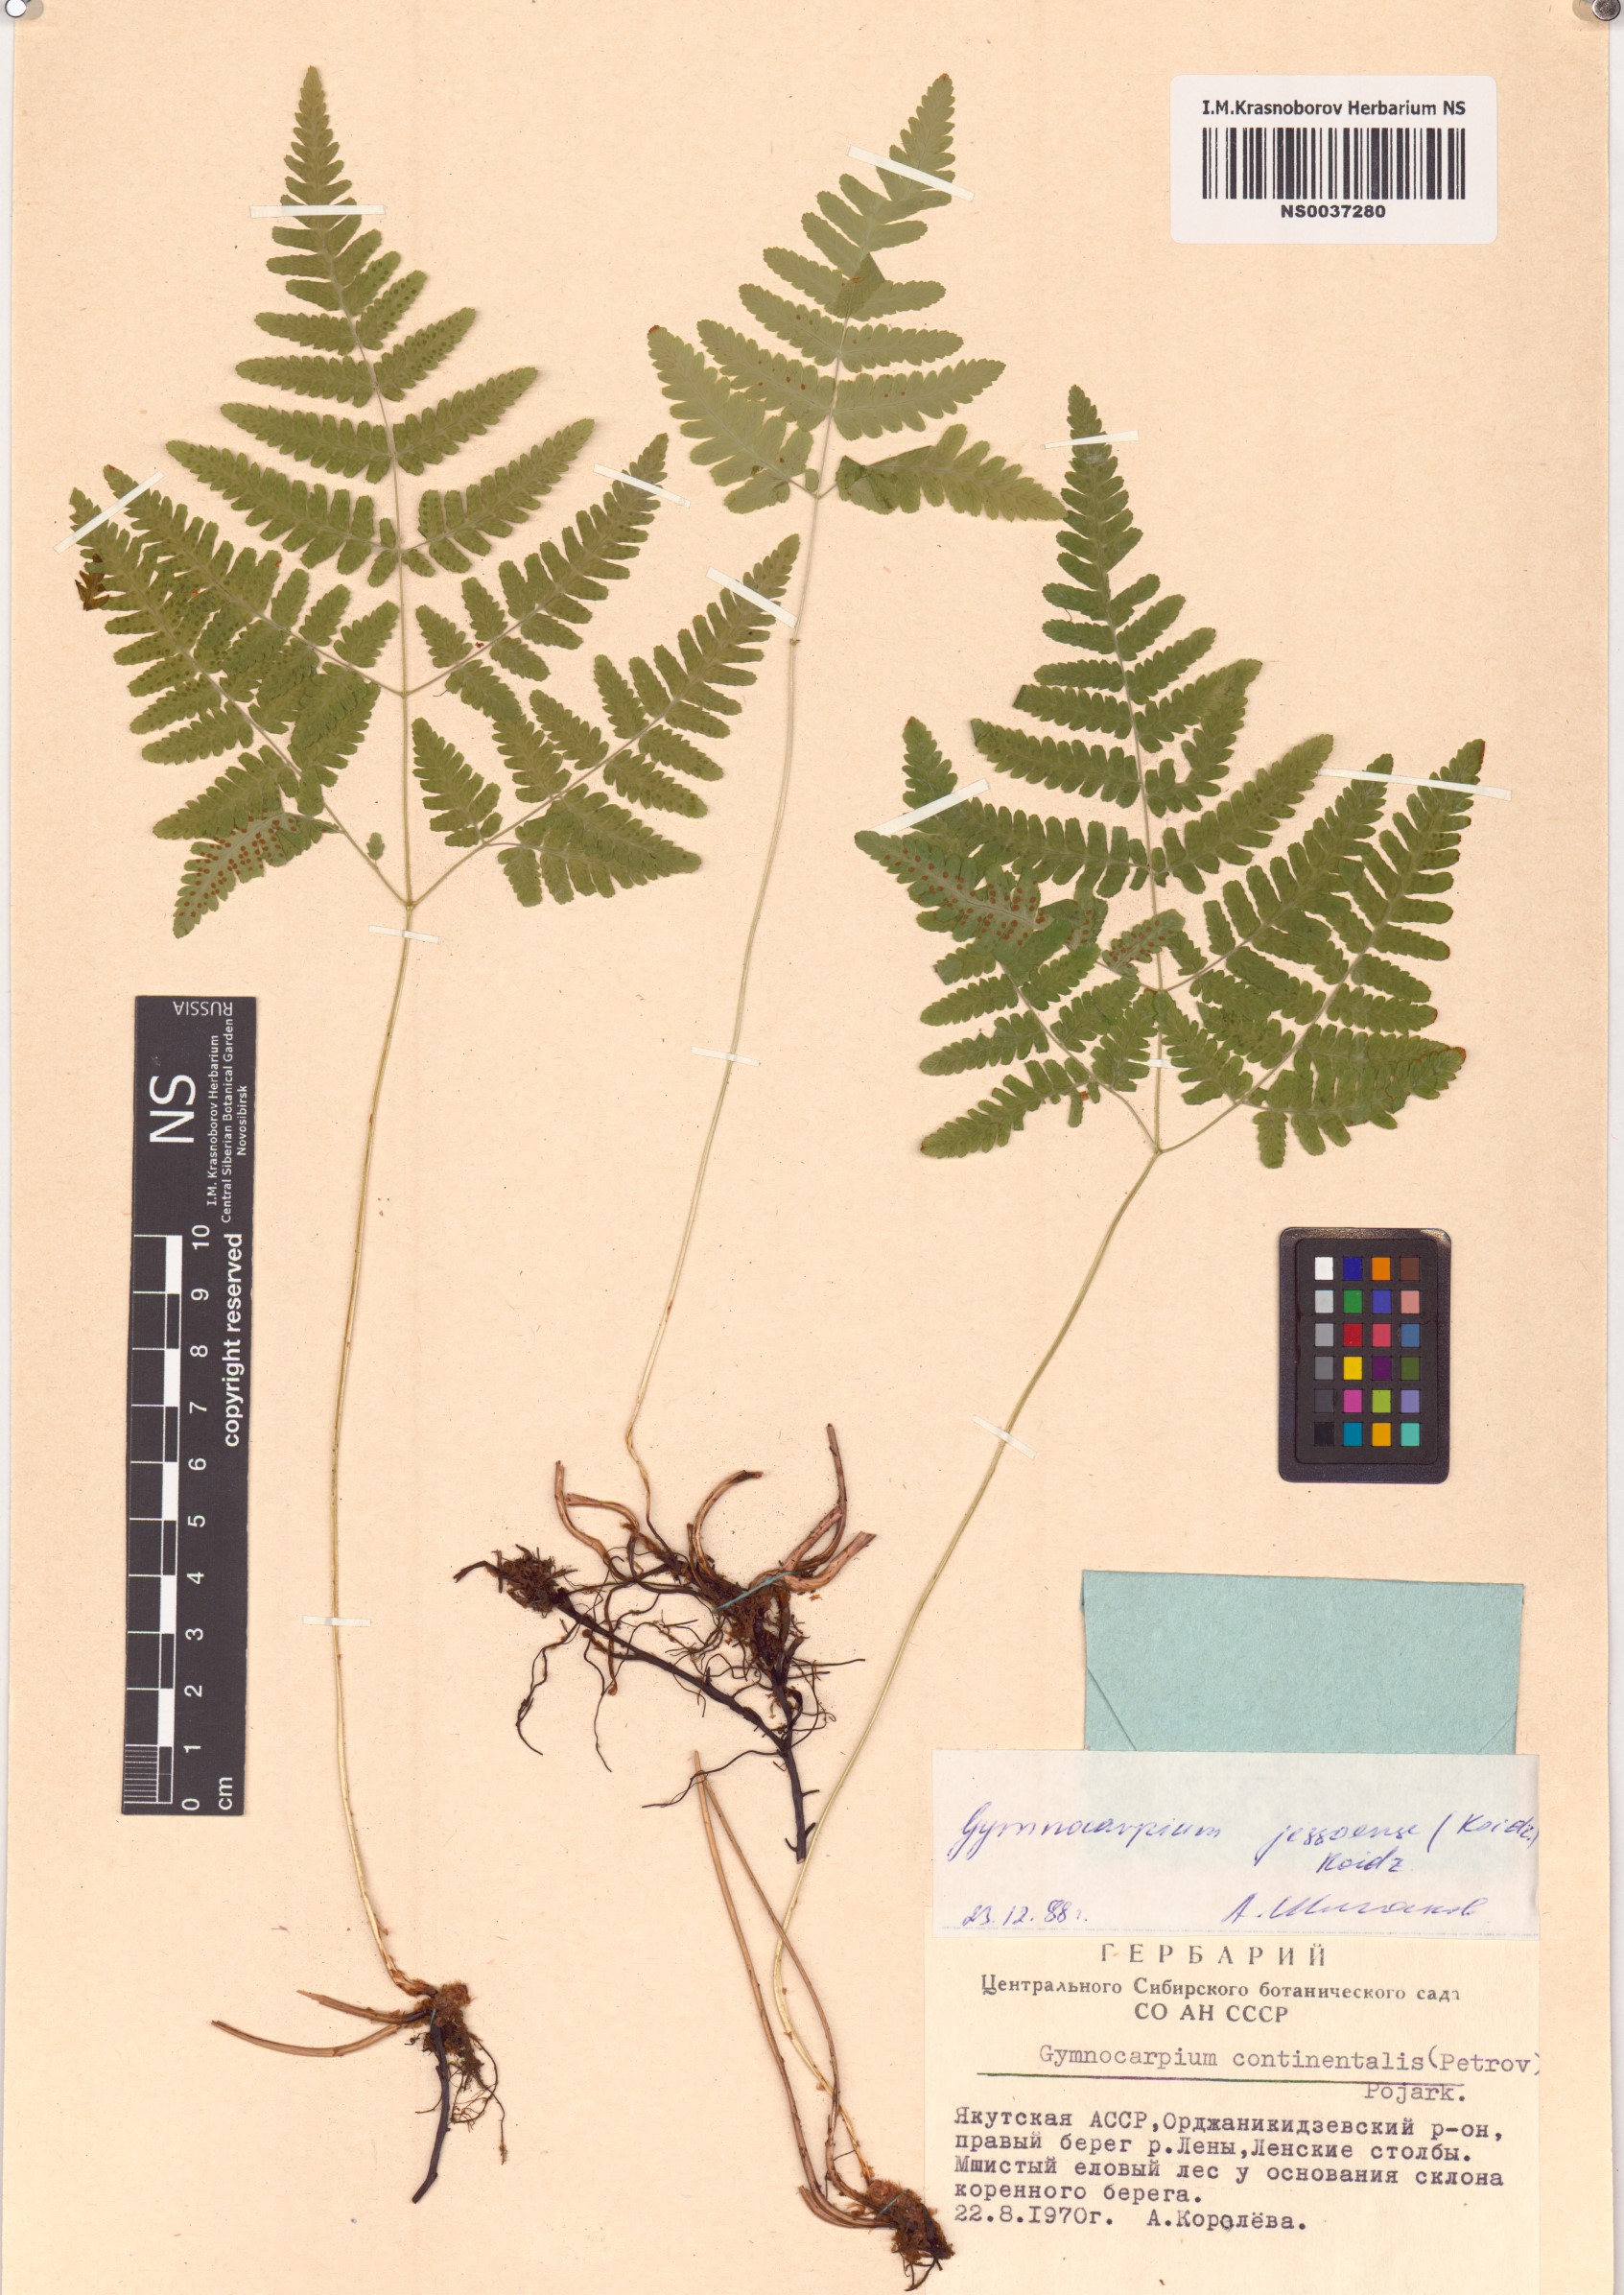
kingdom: Plantae
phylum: Tracheophyta
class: Polypodiopsida
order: Polypodiales
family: Cystopteridaceae
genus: Gymnocarpium
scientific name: Gymnocarpium jessoense
